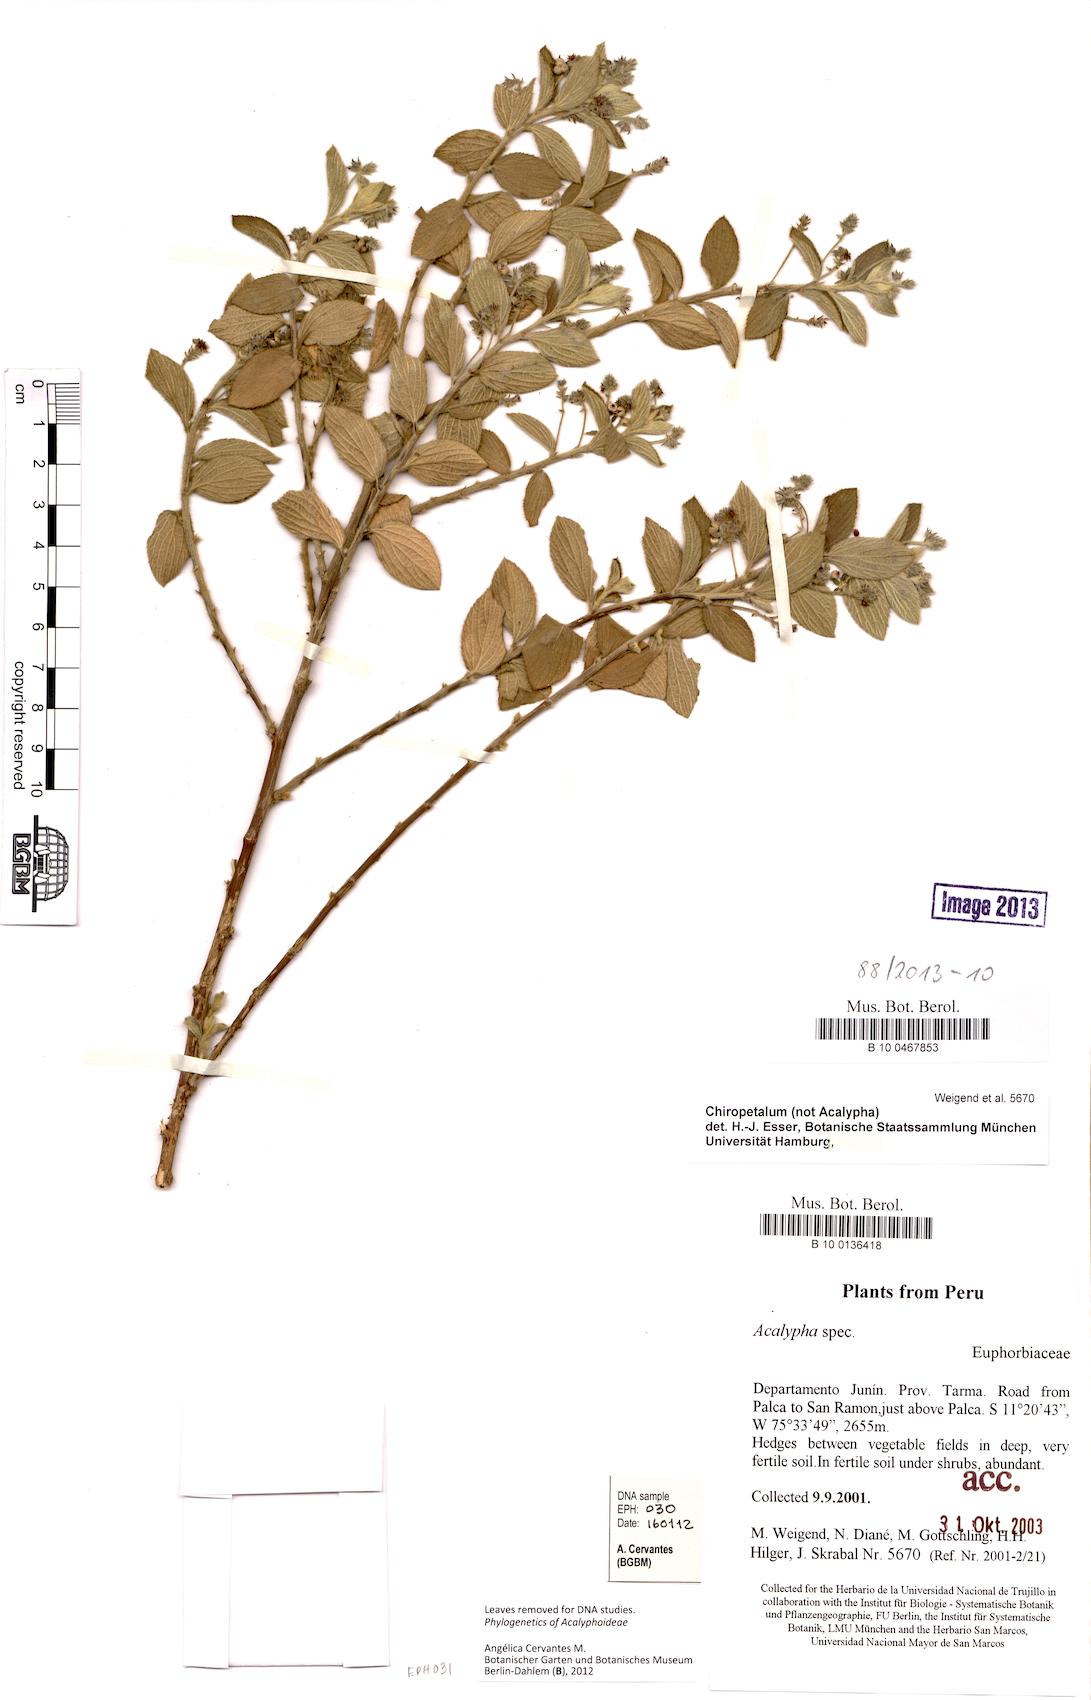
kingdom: Plantae
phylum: Tracheophyta
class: Magnoliopsida
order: Malpighiales
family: Euphorbiaceae
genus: Chiropetalum
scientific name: Chiropetalum
